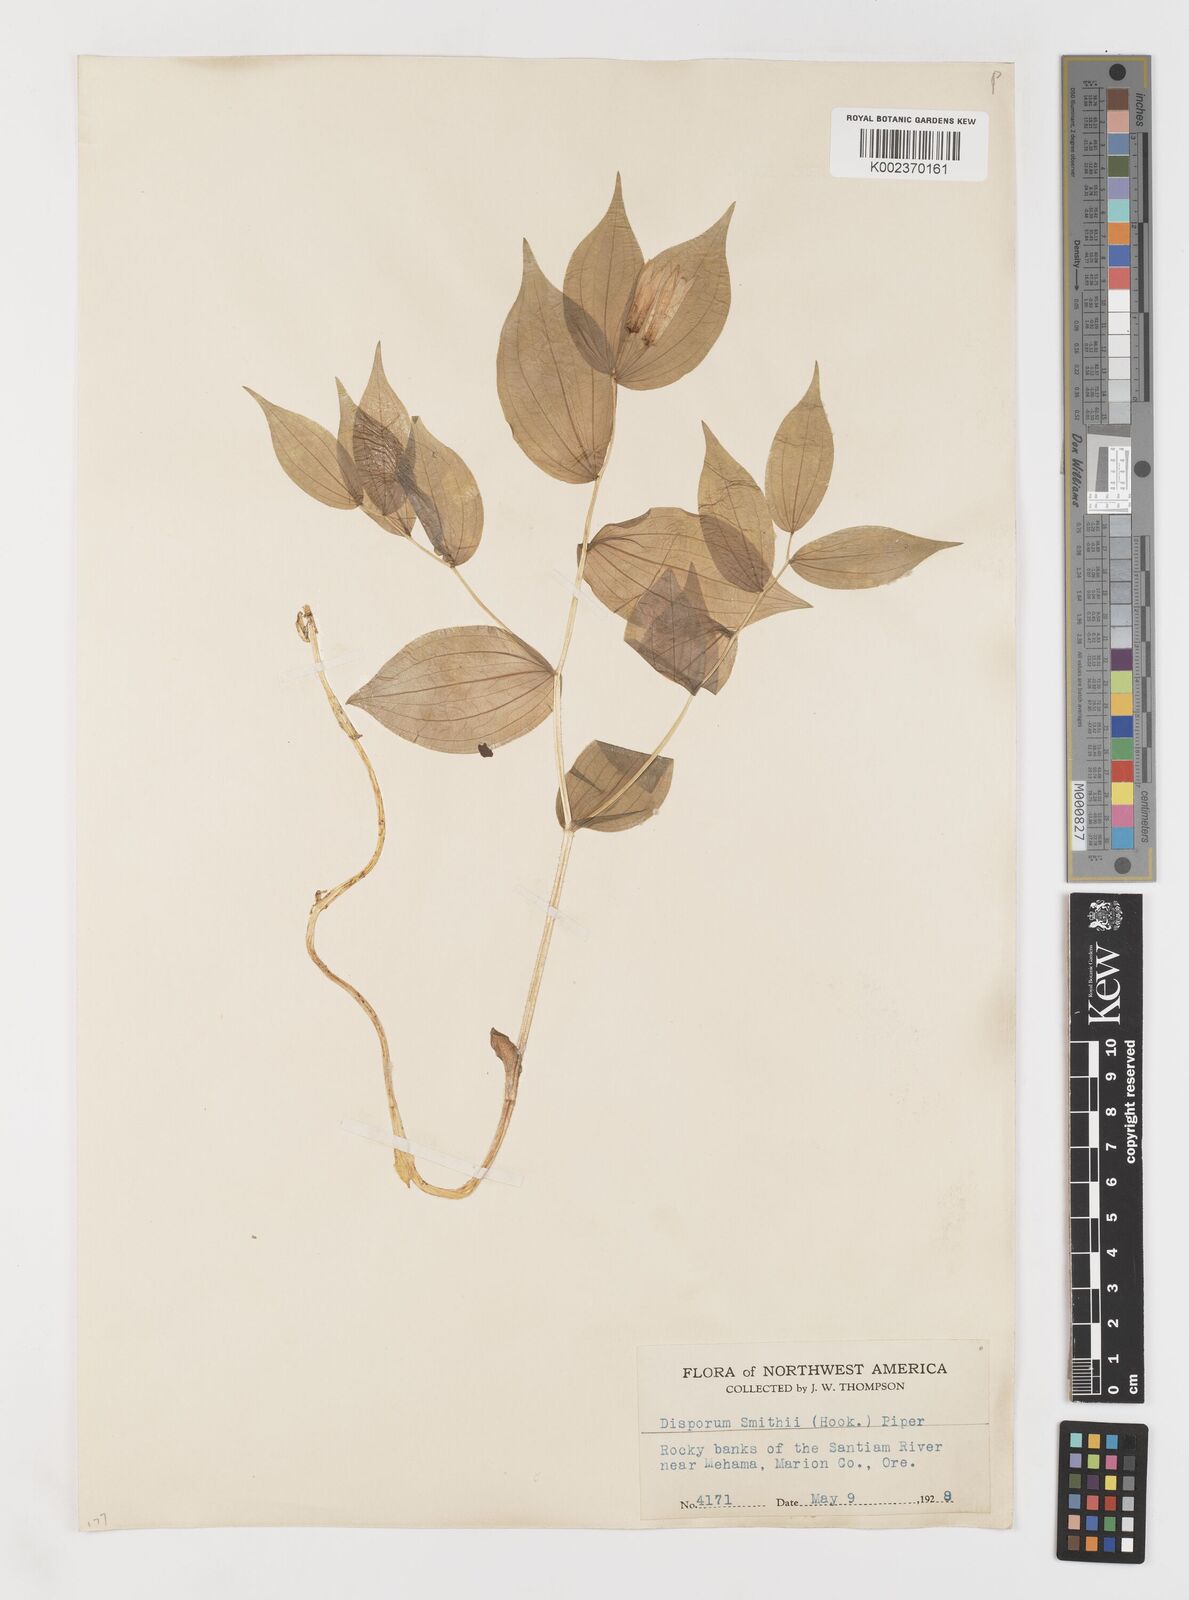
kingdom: Plantae
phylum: Tracheophyta
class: Liliopsida
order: Liliales
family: Liliaceae
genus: Prosartes
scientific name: Prosartes smithii
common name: Fairy-lantern
